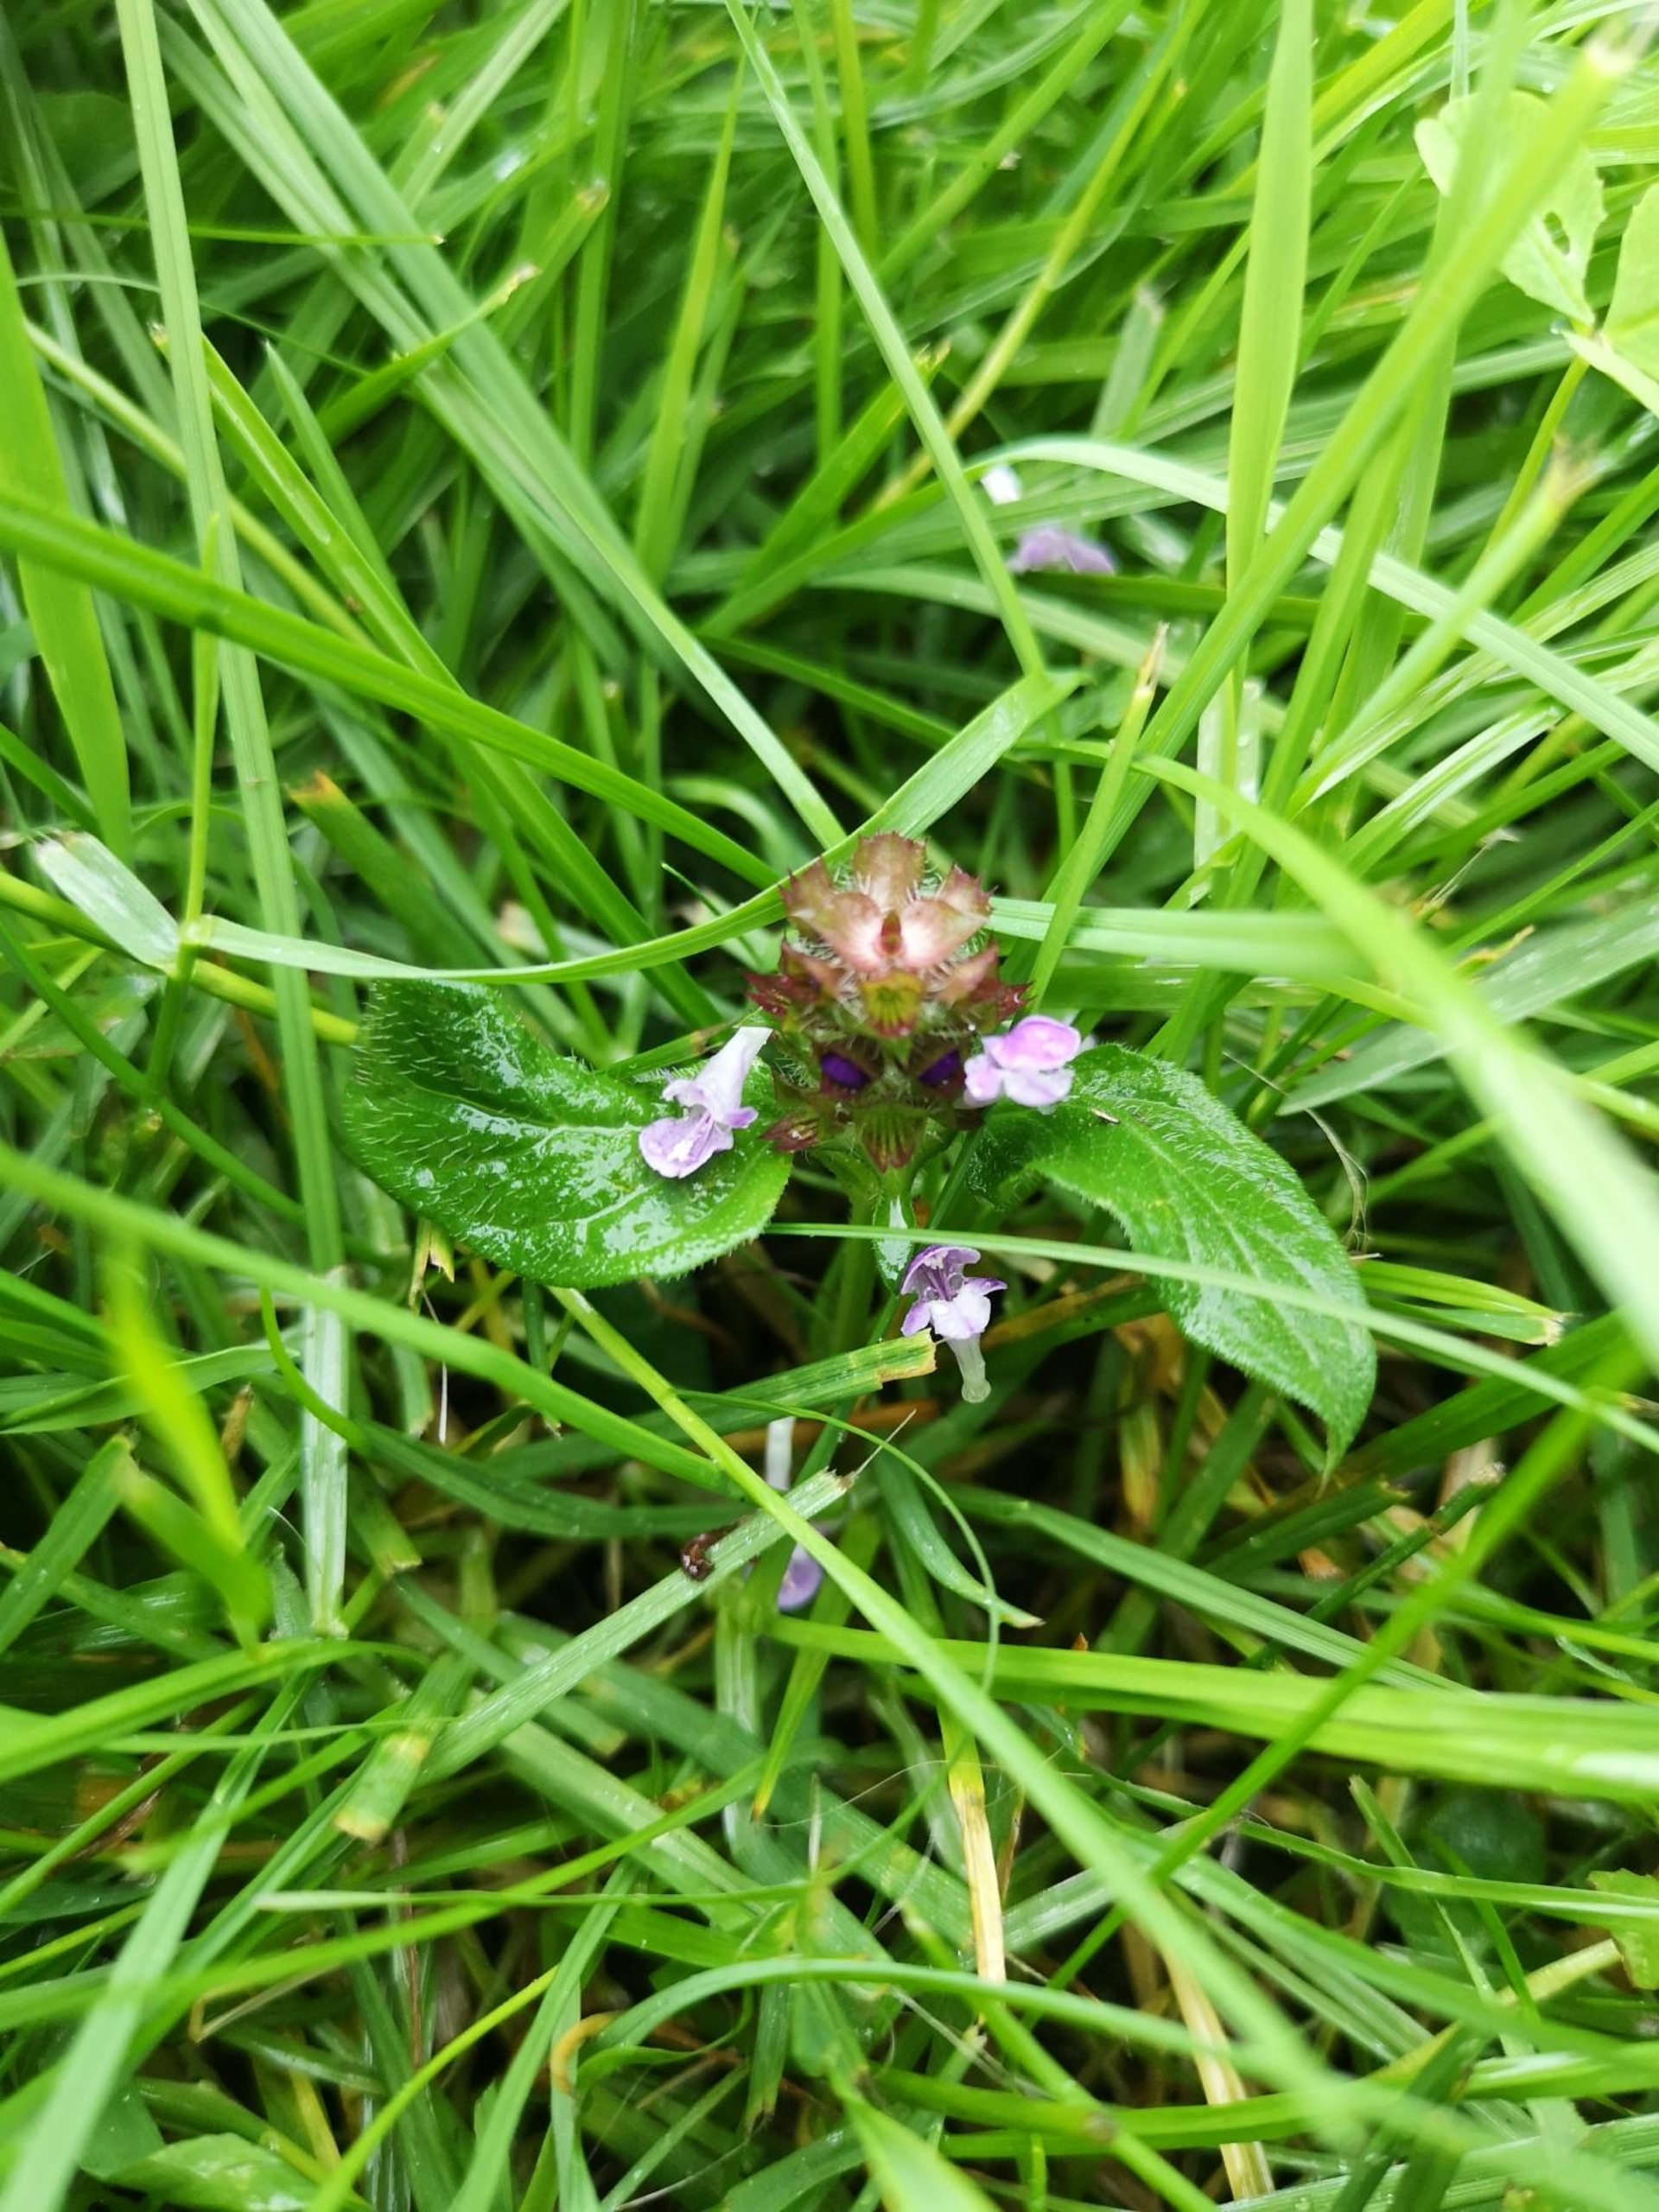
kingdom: Plantae
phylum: Tracheophyta
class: Magnoliopsida
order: Lamiales
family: Lamiaceae
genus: Prunella
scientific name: Prunella vulgaris
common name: Almindelig brunelle
